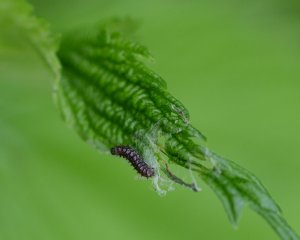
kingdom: Animalia
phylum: Arthropoda
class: Insecta
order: Lepidoptera
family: Nymphalidae
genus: Vanessa
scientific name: Vanessa atalanta
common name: Red Admiral
